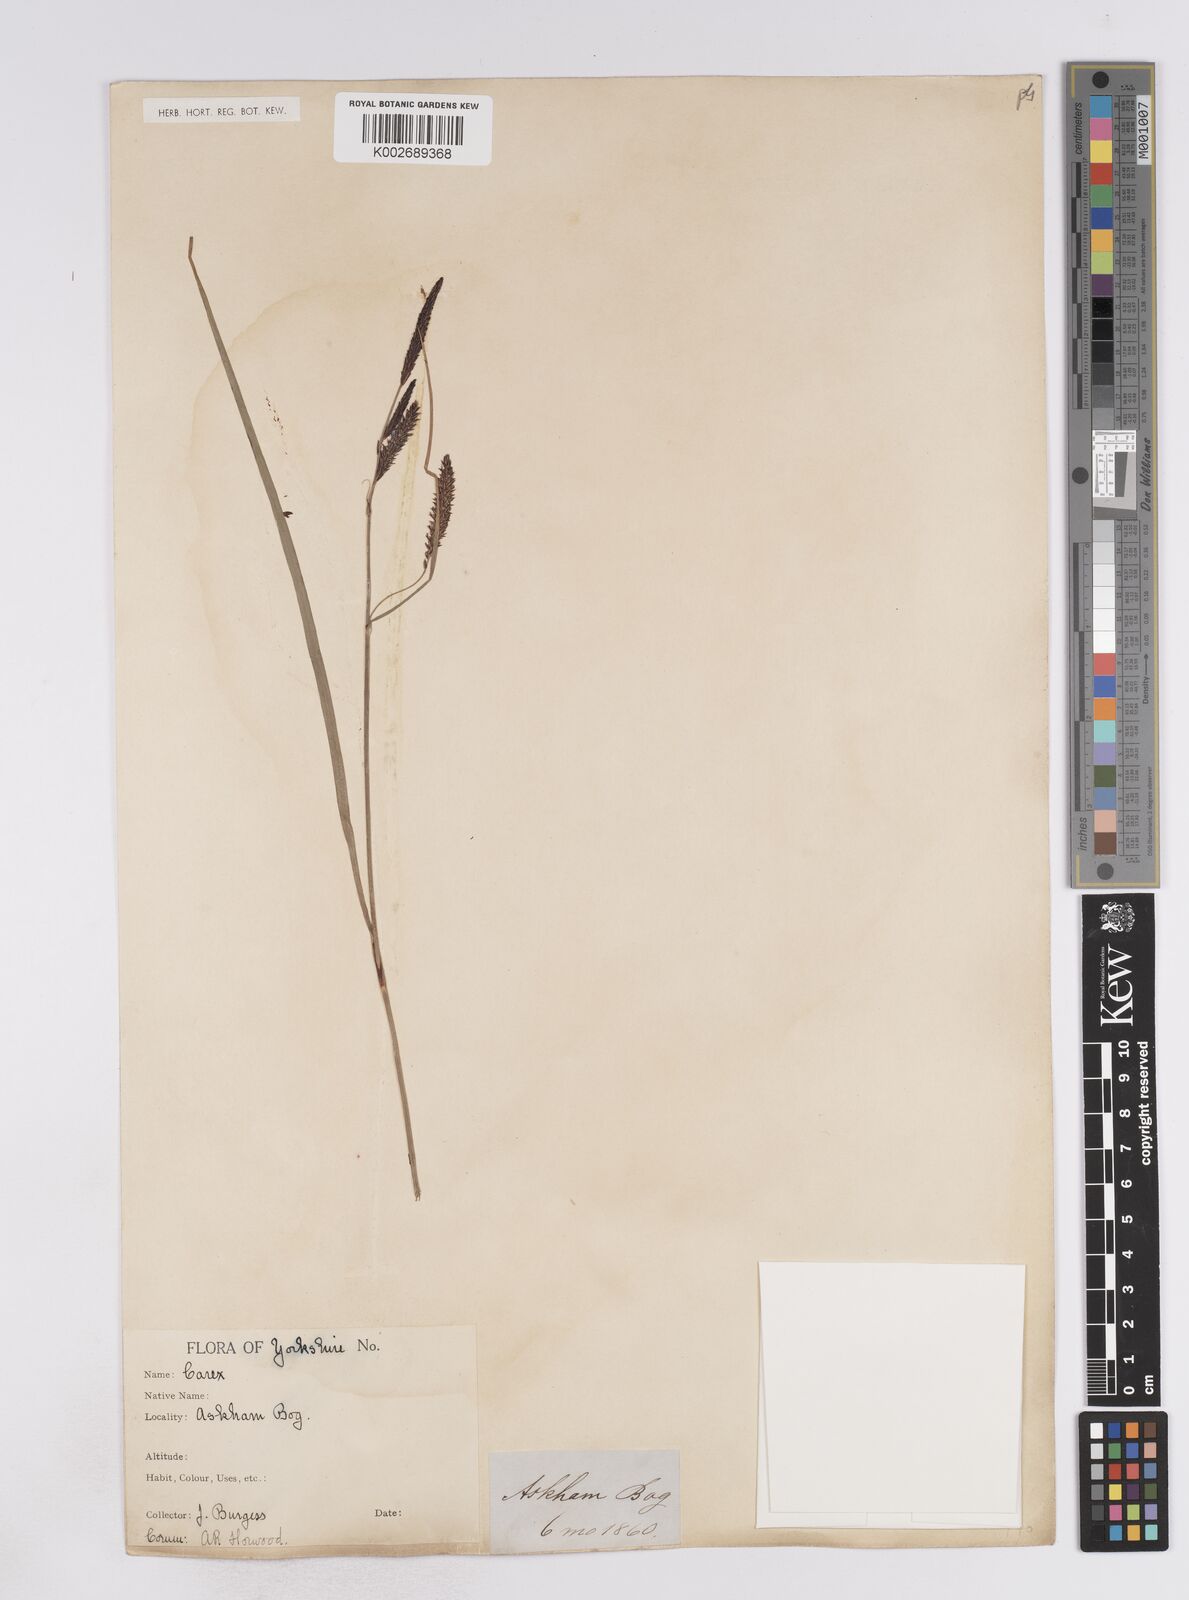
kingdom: Plantae
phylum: Tracheophyta
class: Liliopsida
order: Poales
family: Cyperaceae
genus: Carex
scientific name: Carex flacca
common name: Glaucous sedge
